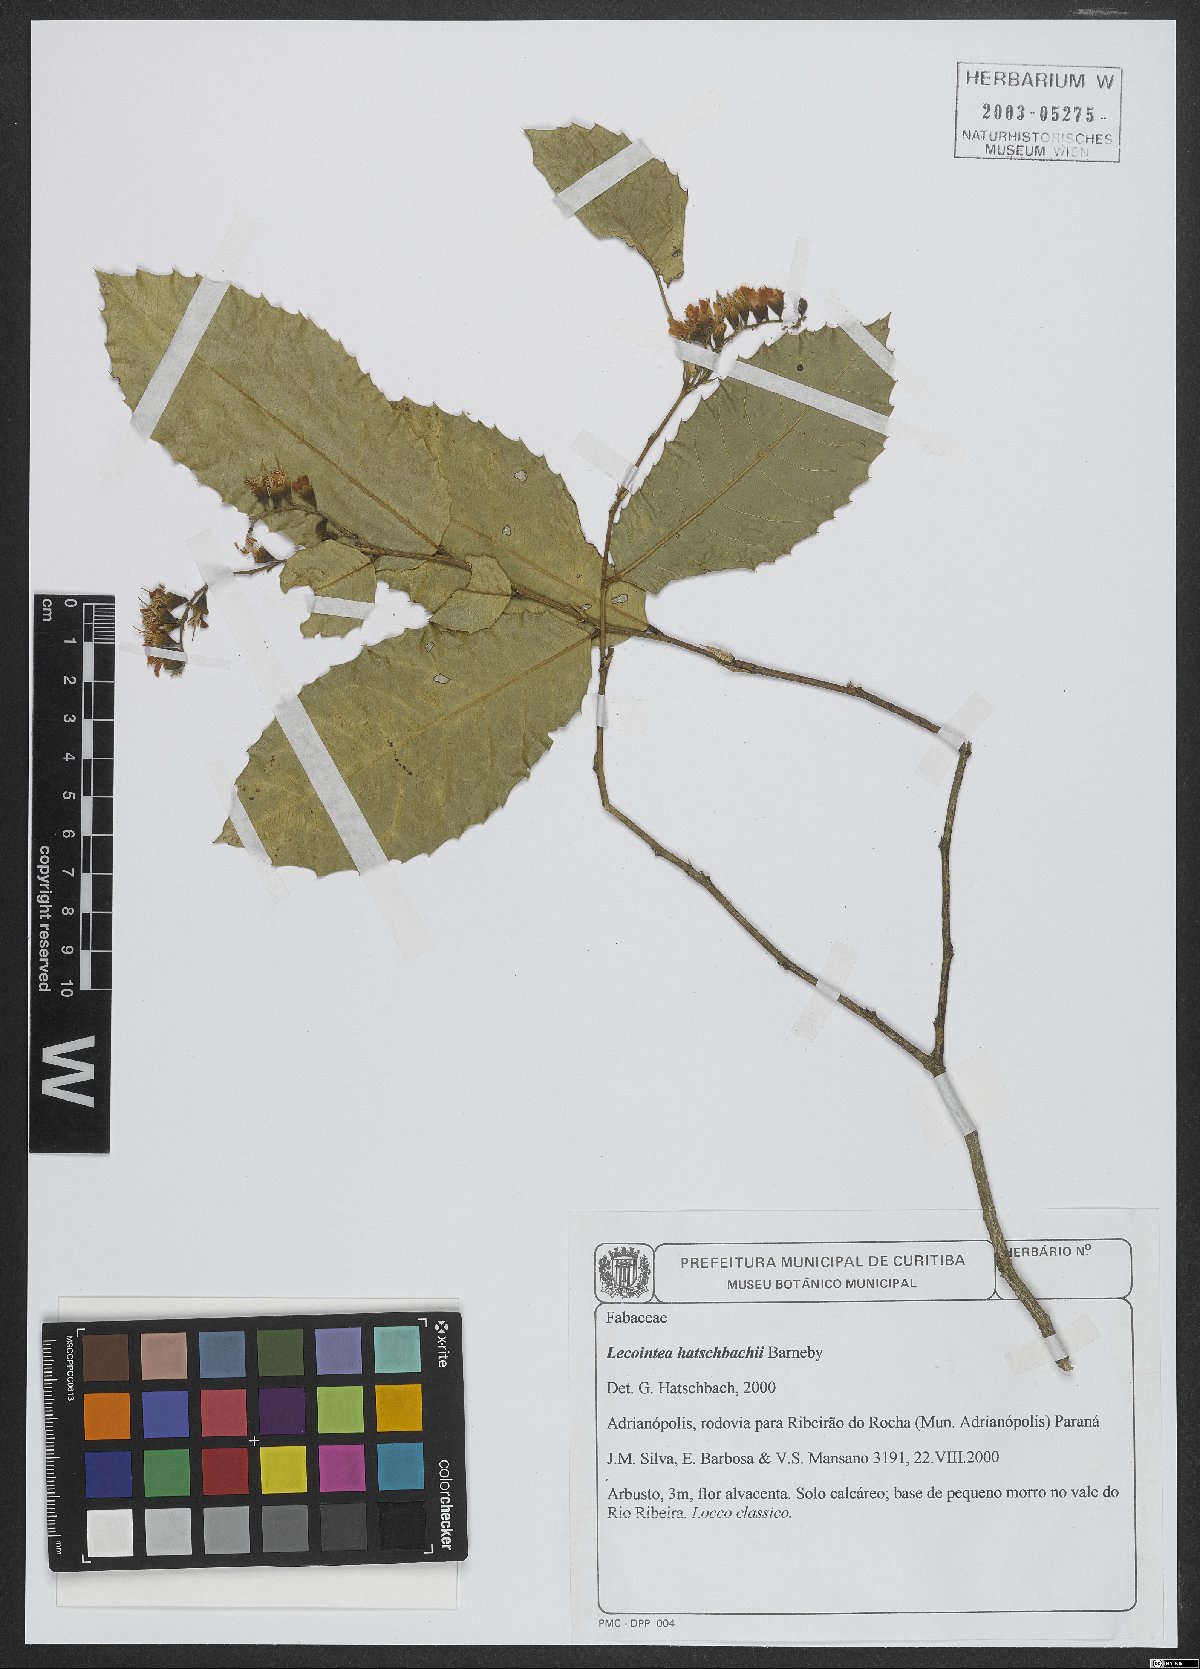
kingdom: Plantae
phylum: Tracheophyta
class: Magnoliopsida
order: Fabales
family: Fabaceae
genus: Lecointea
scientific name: Lecointea hatschbachii
